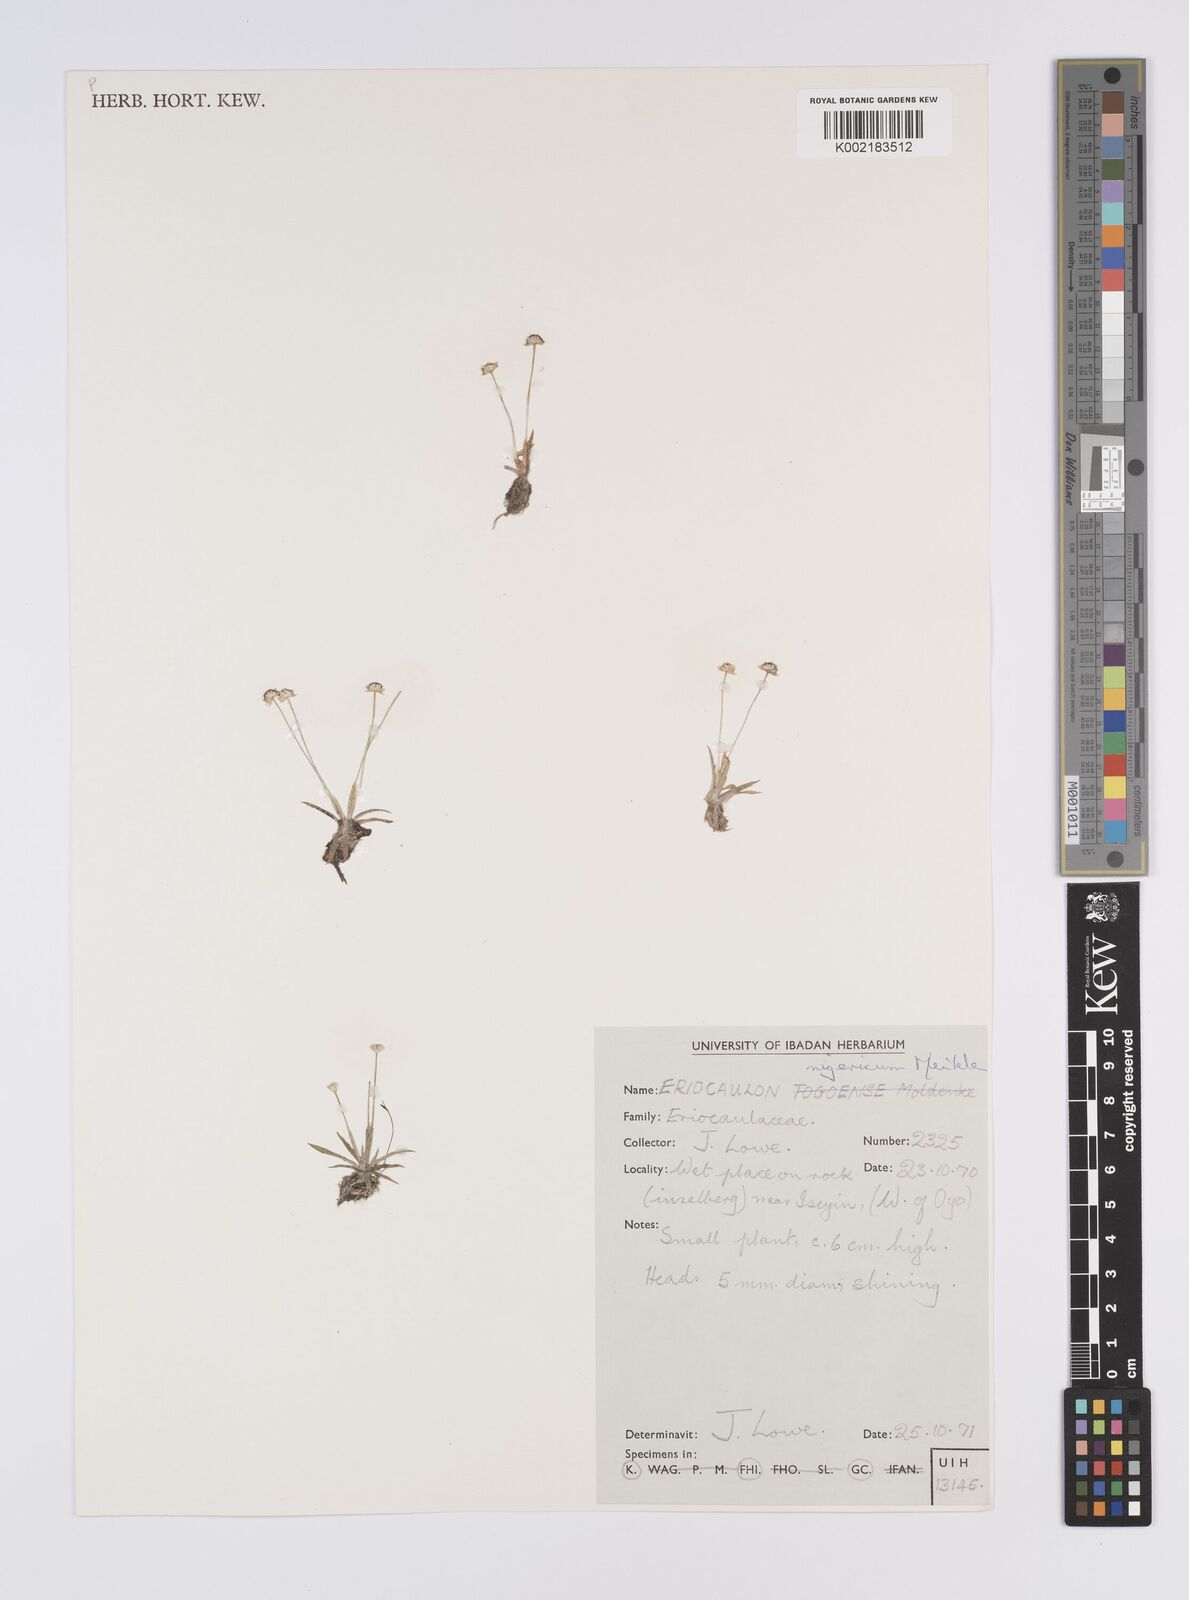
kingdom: Plantae
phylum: Tracheophyta
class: Liliopsida
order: Poales
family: Eriocaulaceae
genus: Eriocaulon
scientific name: Eriocaulon nigericum
